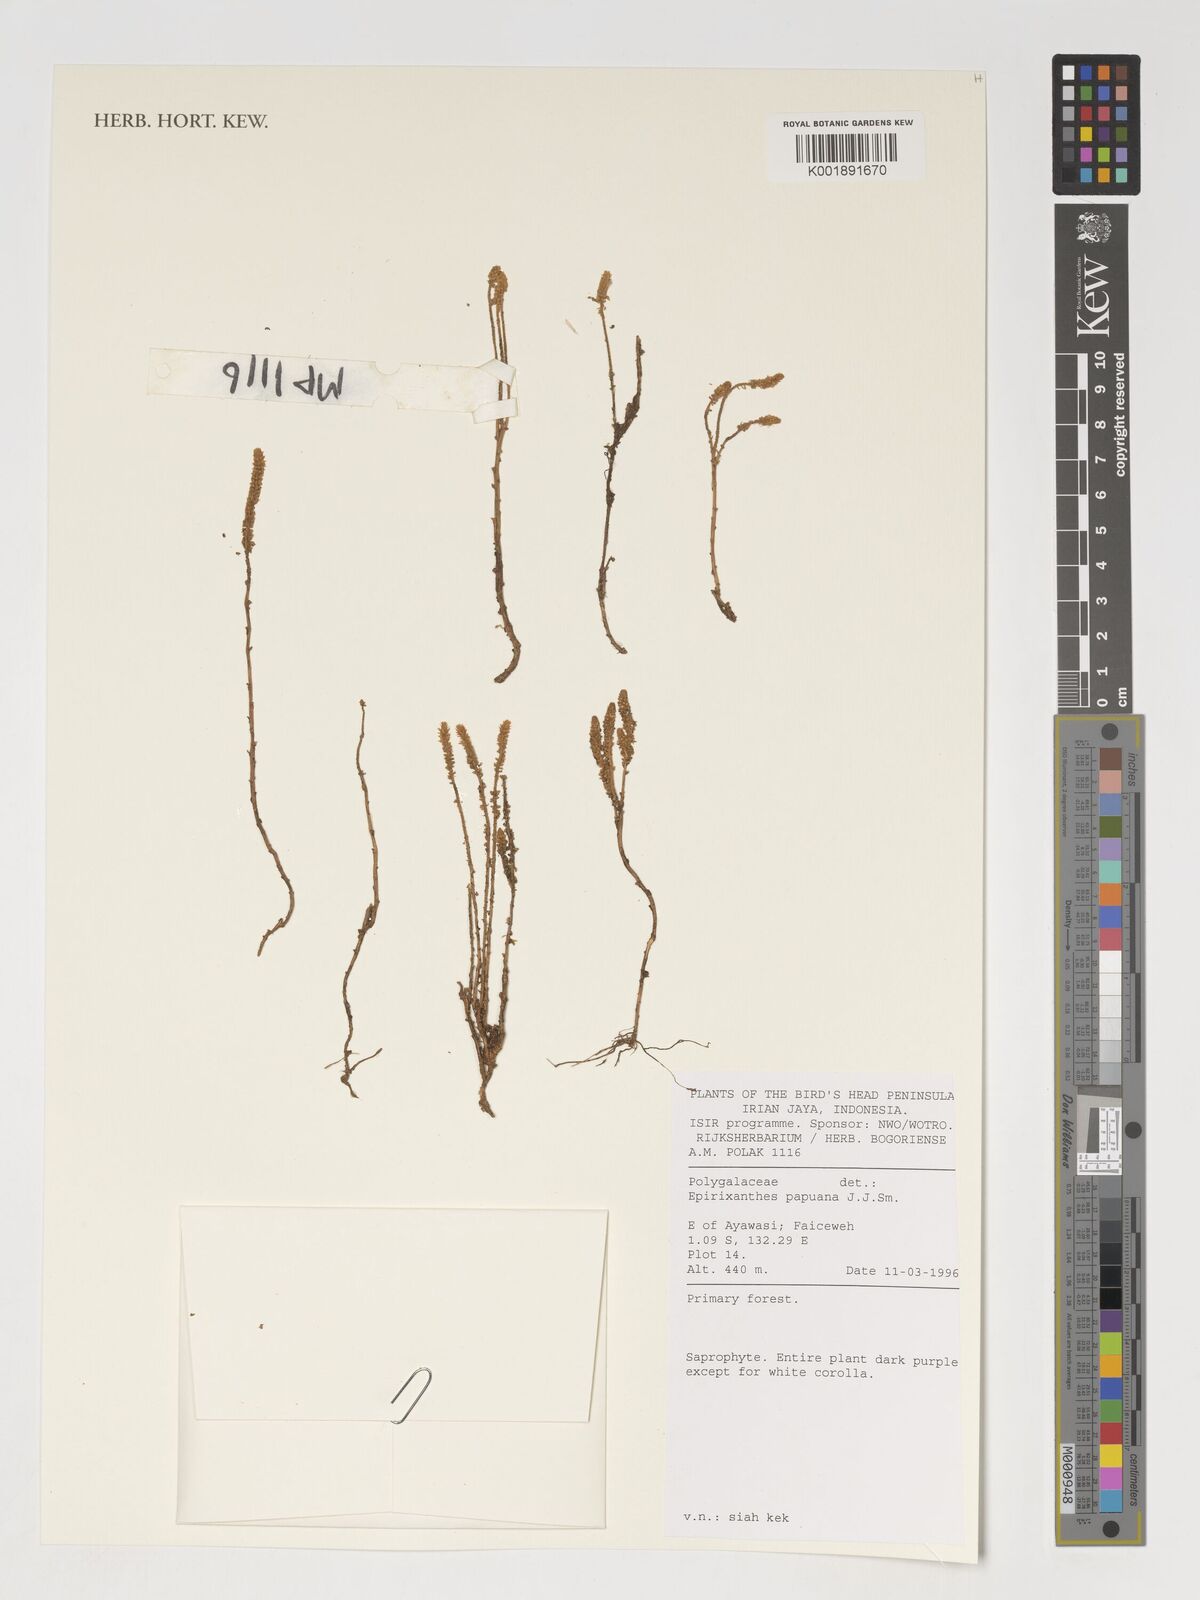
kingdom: Plantae
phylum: Tracheophyta
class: Magnoliopsida
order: Fabales
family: Polygalaceae
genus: Epirixanthes
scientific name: Epirixanthes papuana
